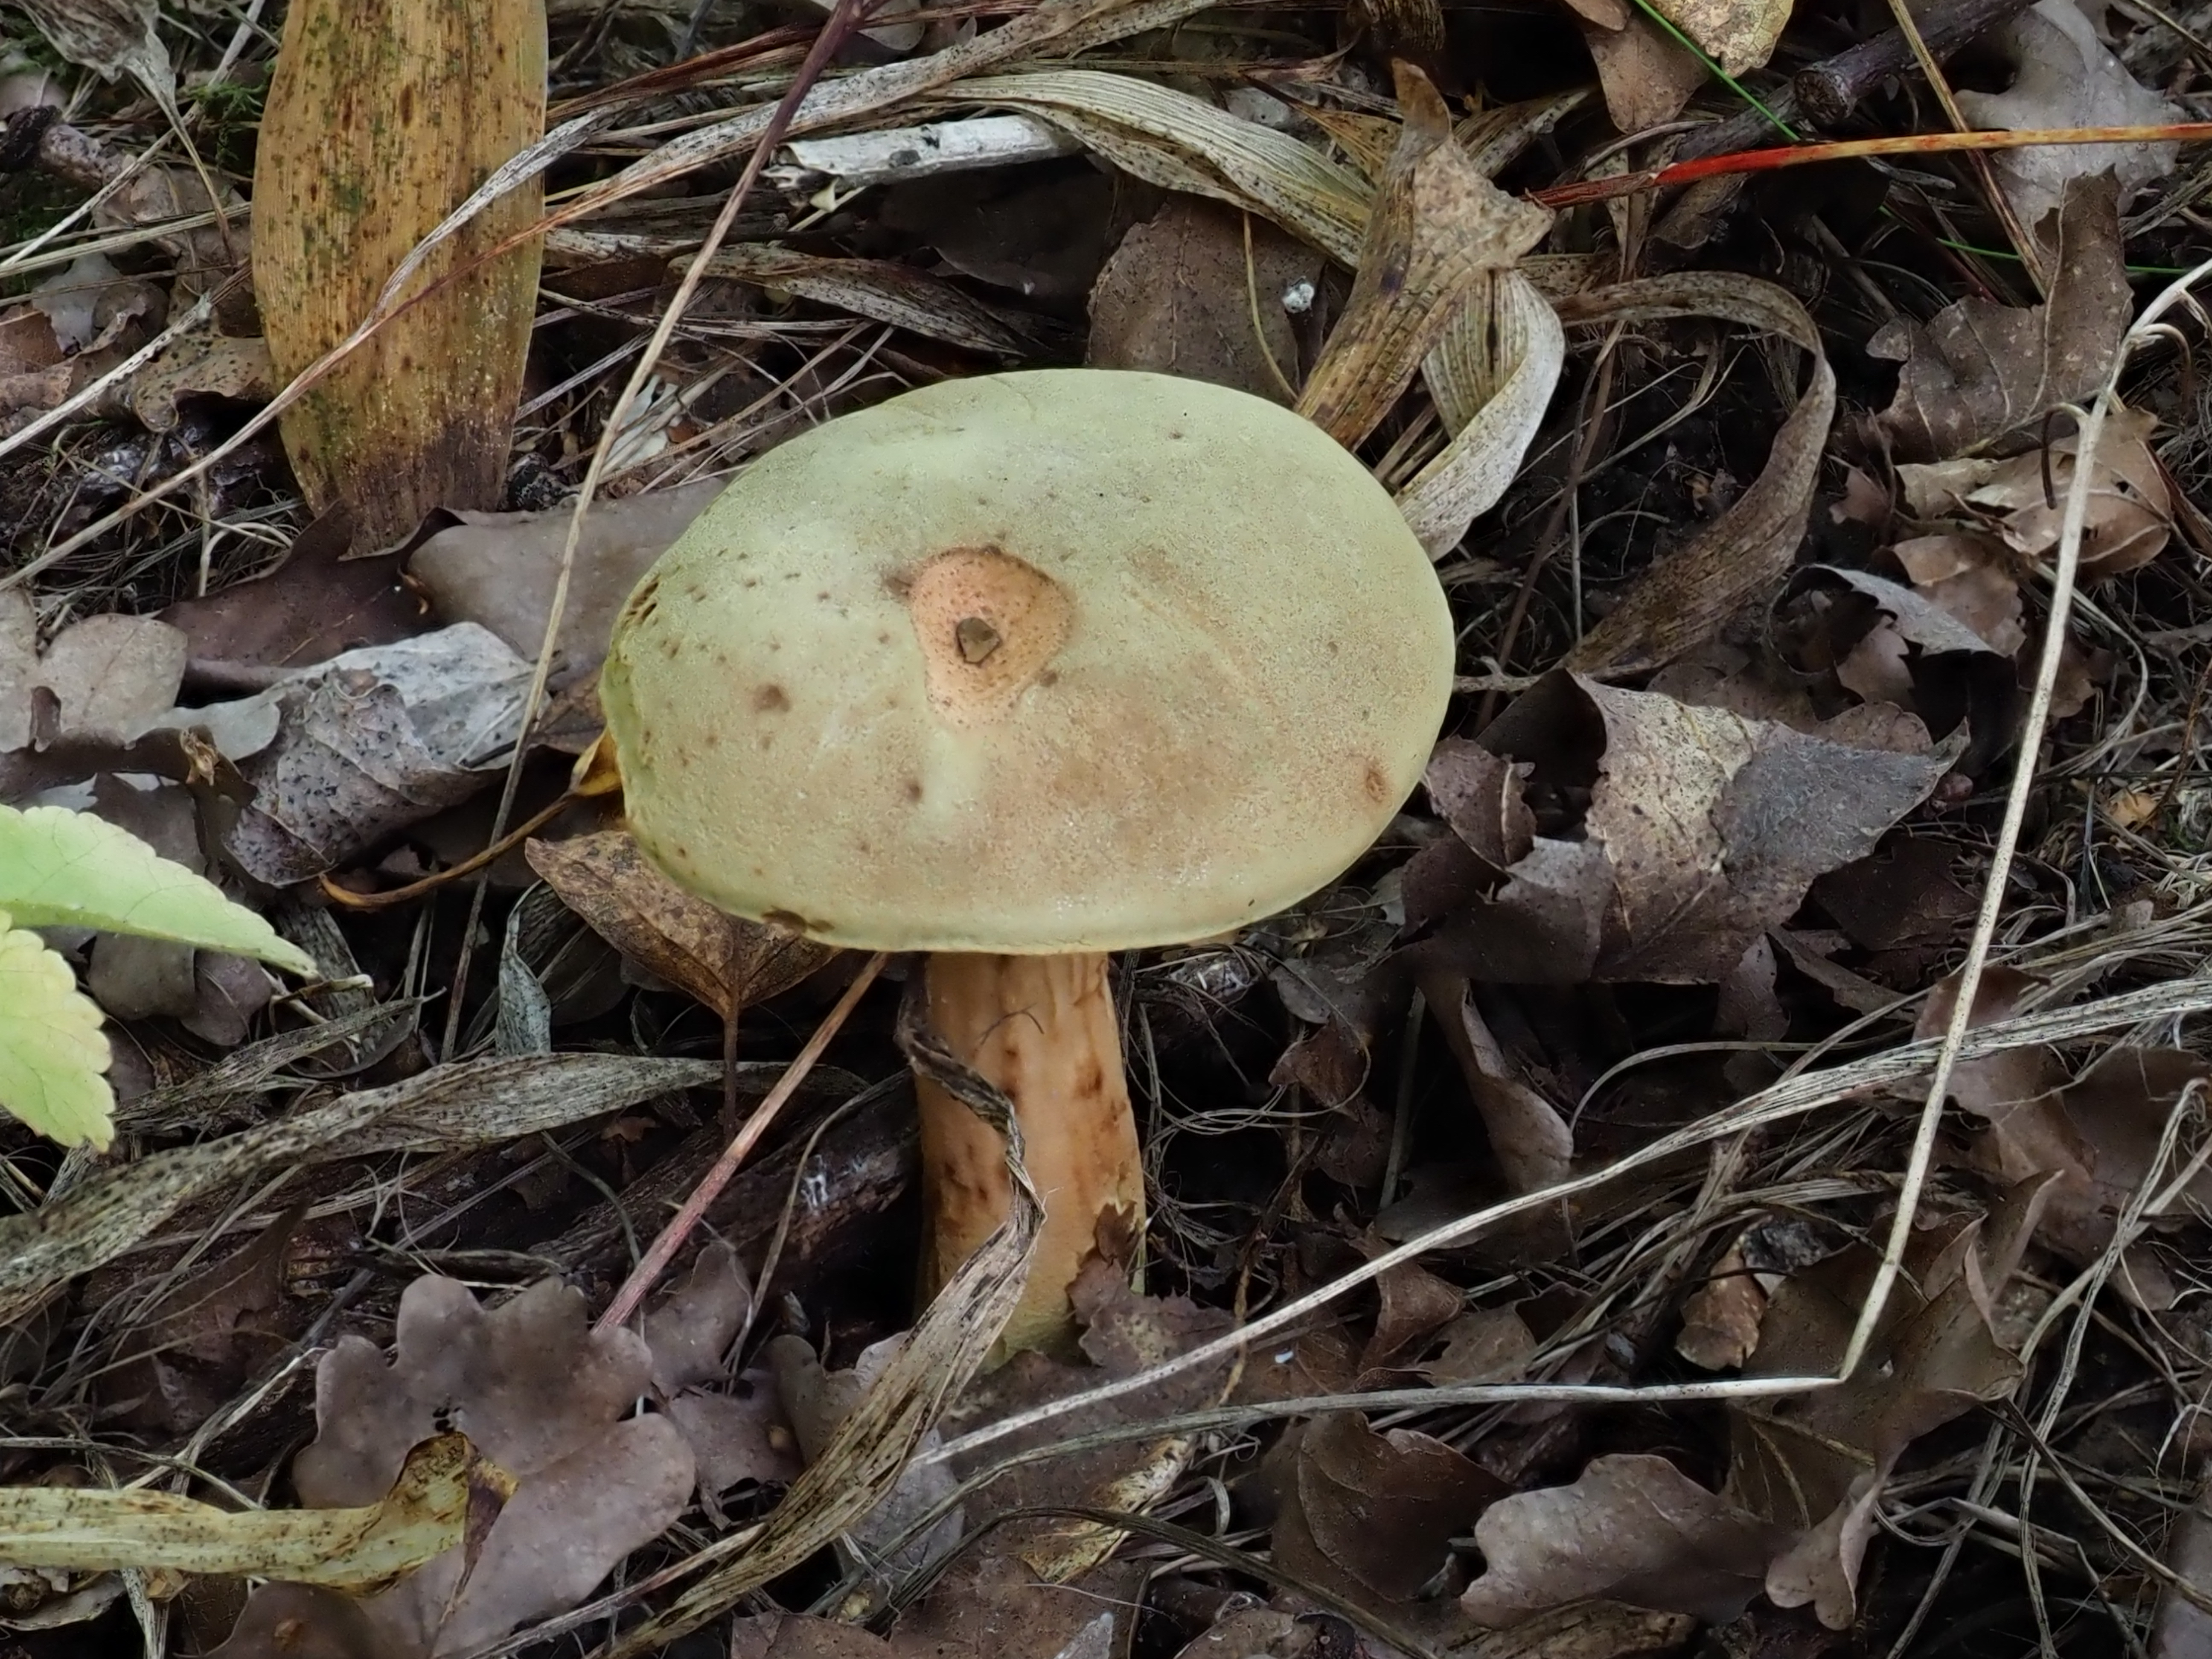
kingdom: Fungi
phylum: Basidiomycota
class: Agaricomycetes
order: Boletales
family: Boletaceae
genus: Xerocomus
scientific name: Xerocomus subtomentosus
